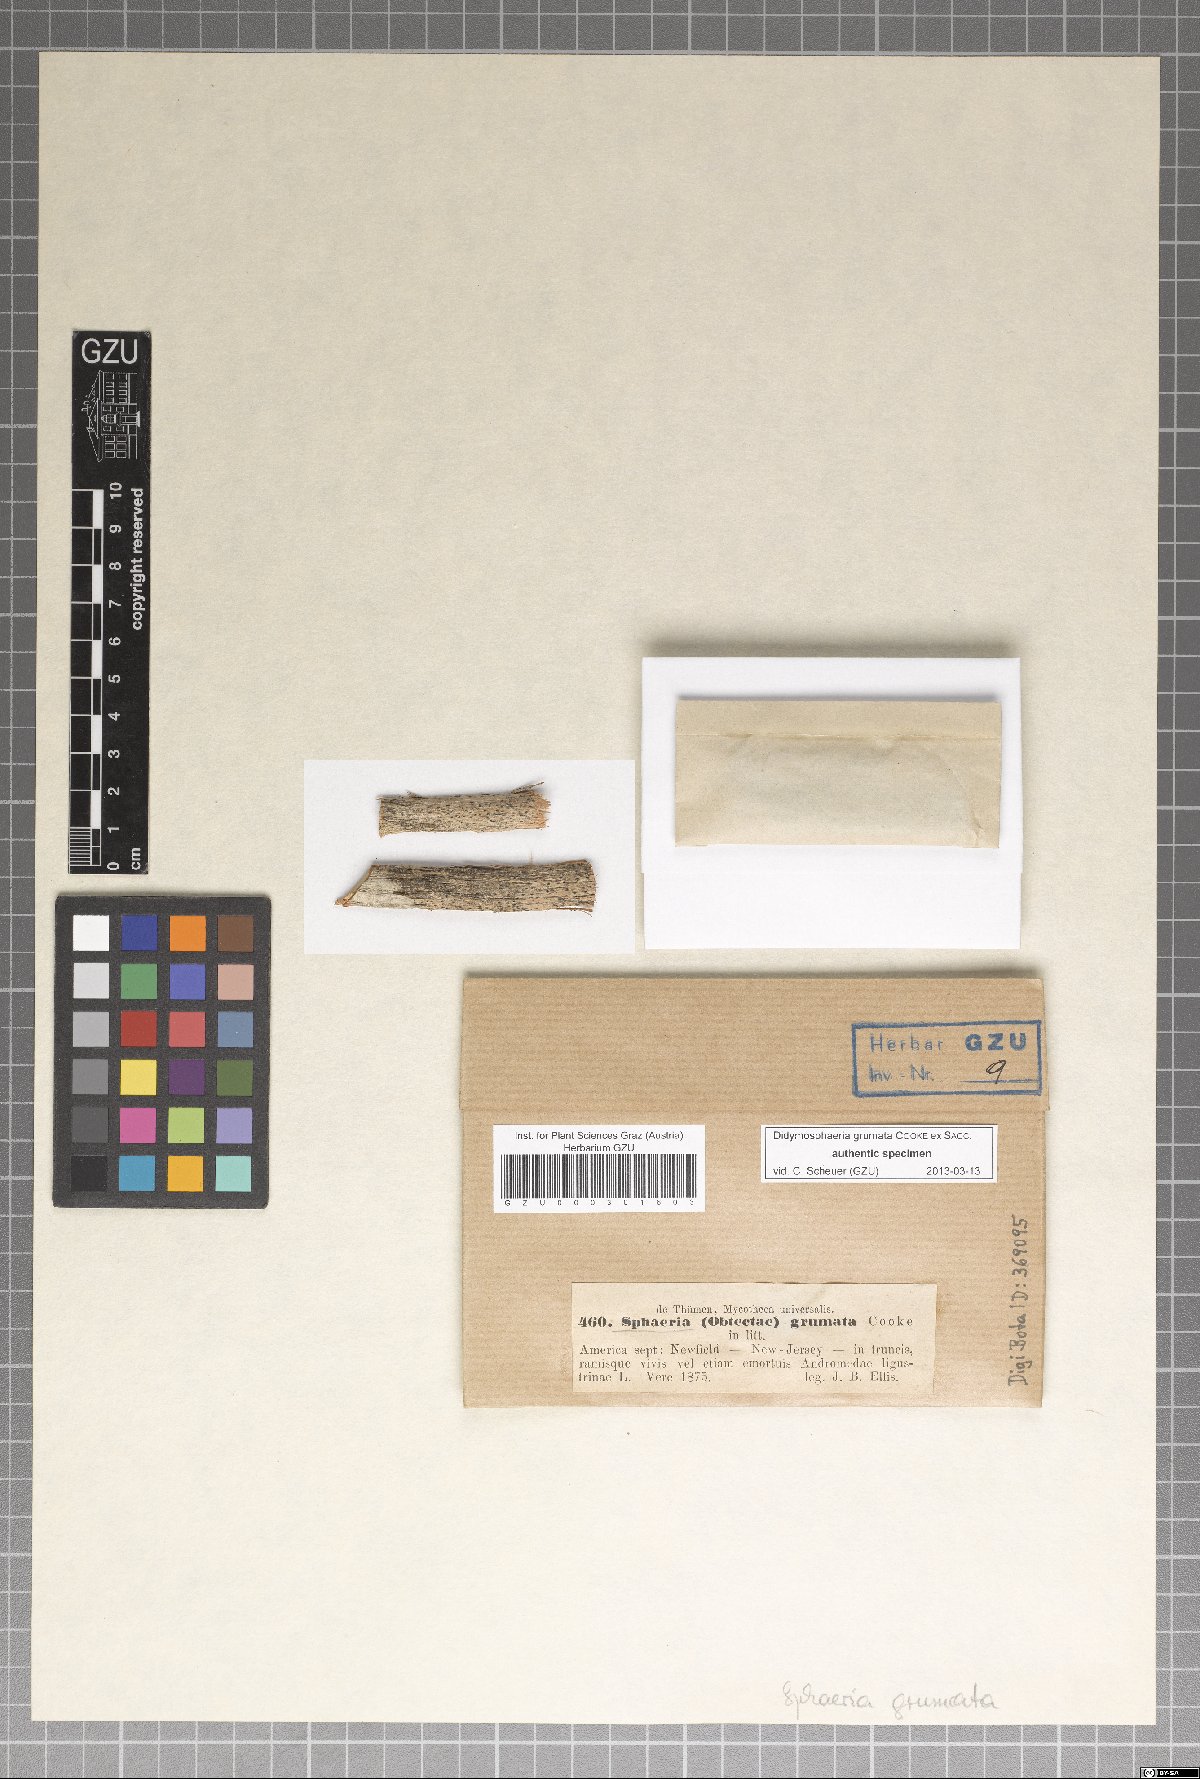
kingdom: Fungi
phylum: Ascomycota
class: Dothideomycetes
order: Monoblastiales
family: Monoblastiaceae
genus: Anisomeridium
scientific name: Anisomeridium grumatum
